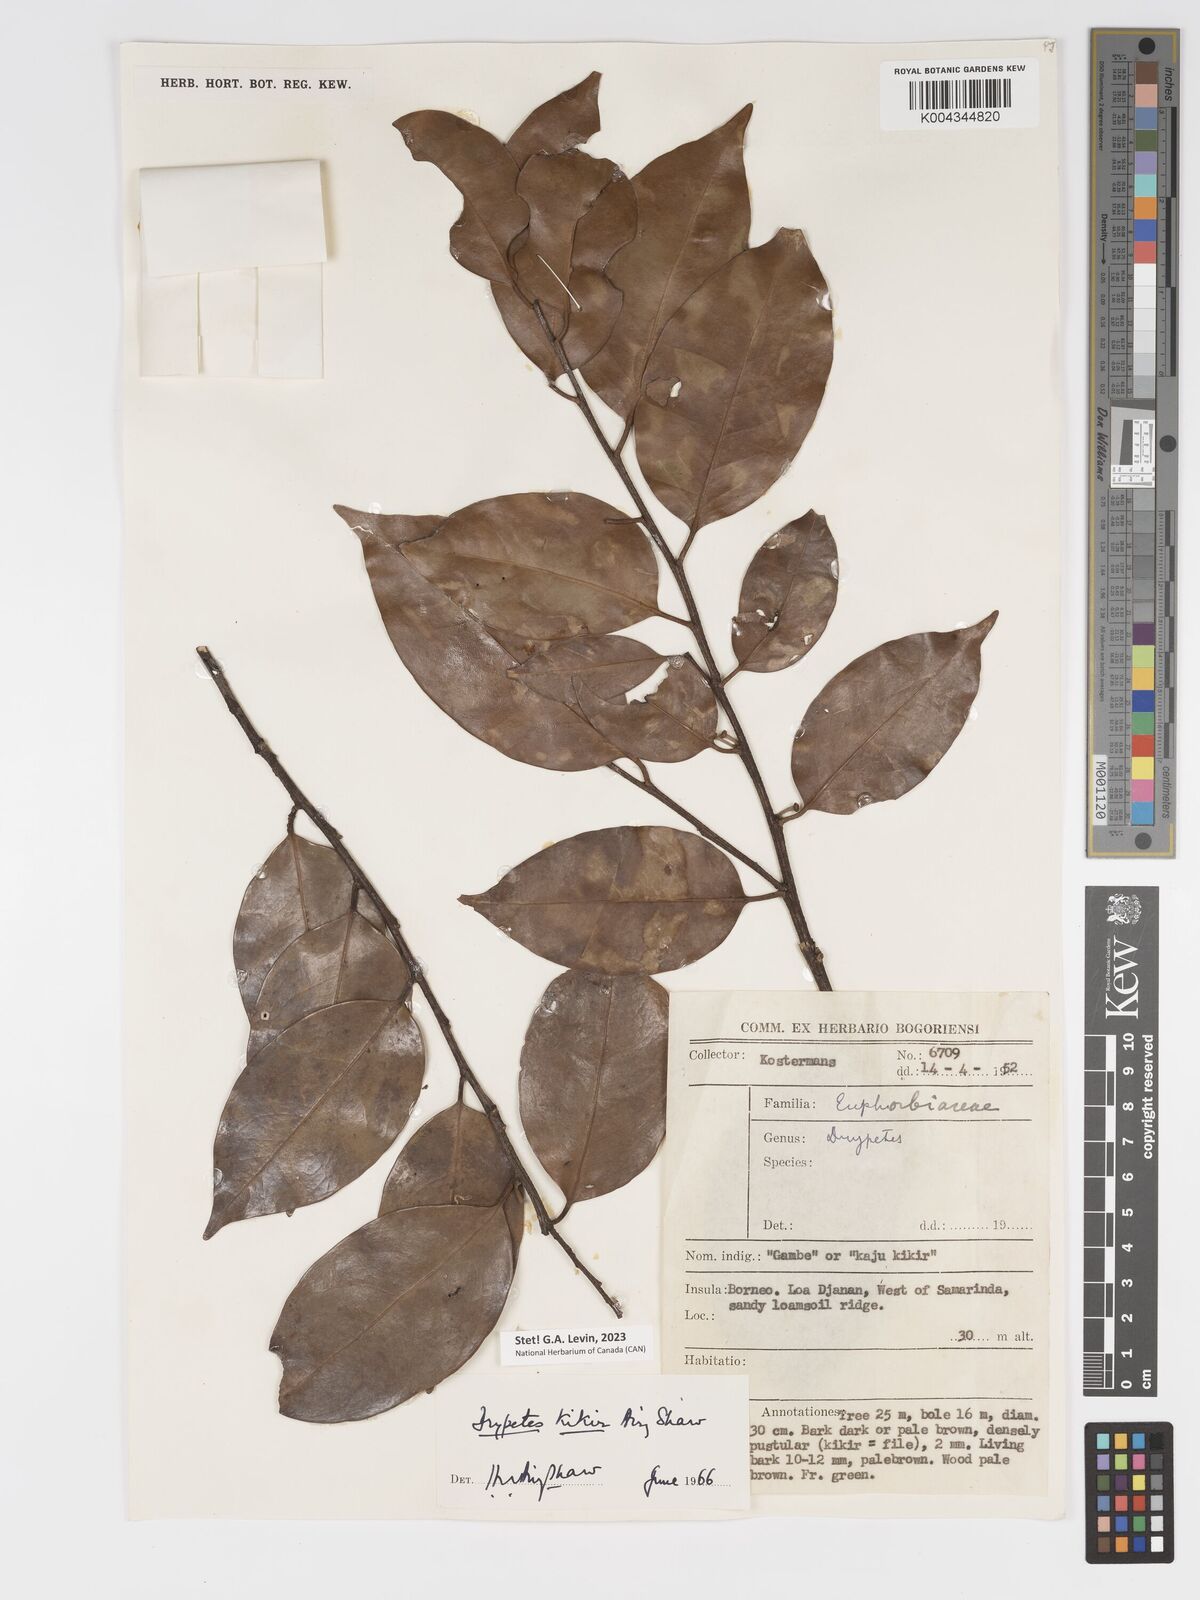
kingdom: Plantae
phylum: Tracheophyta
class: Magnoliopsida
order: Malpighiales
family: Putranjivaceae
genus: Drypetes
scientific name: Drypetes kikir
